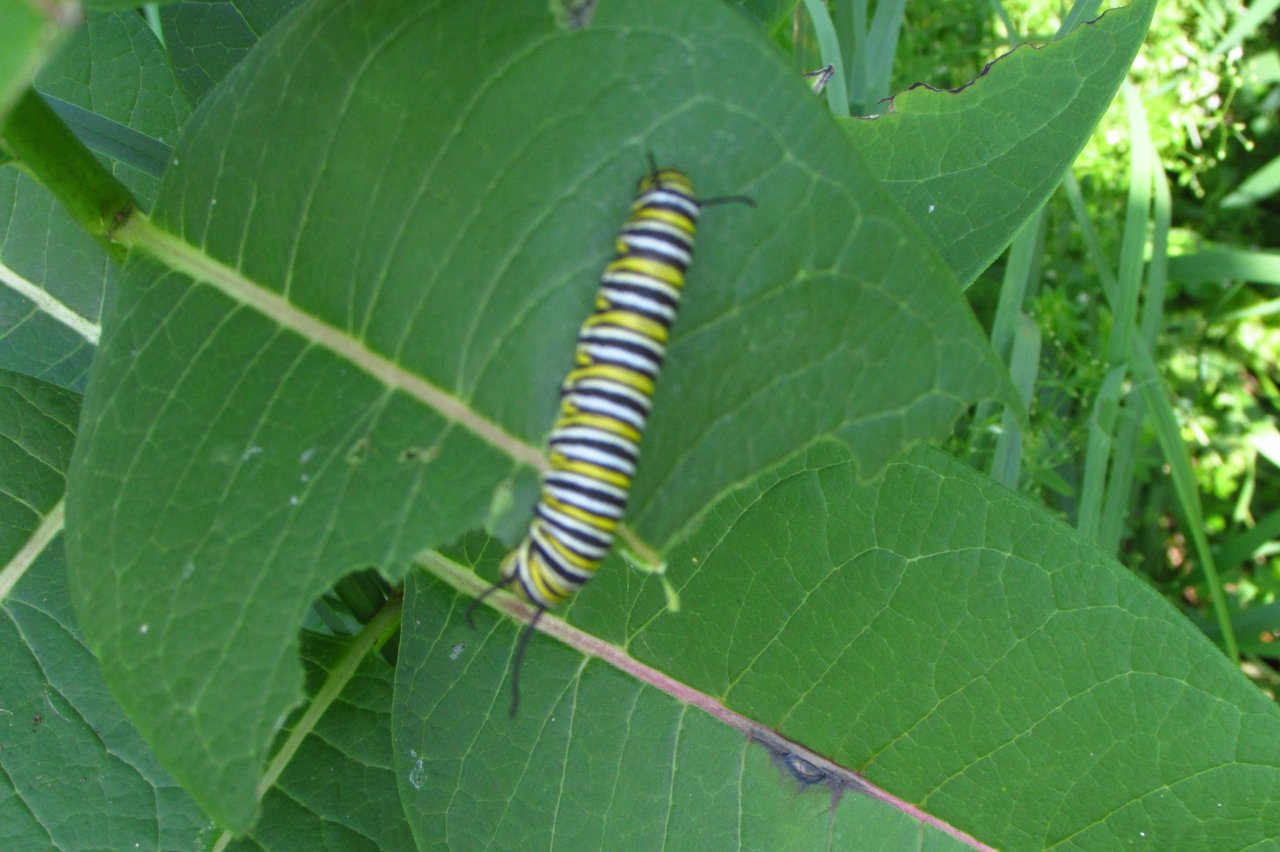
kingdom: Animalia
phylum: Arthropoda
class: Insecta
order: Lepidoptera
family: Nymphalidae
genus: Danaus
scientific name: Danaus plexippus
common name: Monarch
